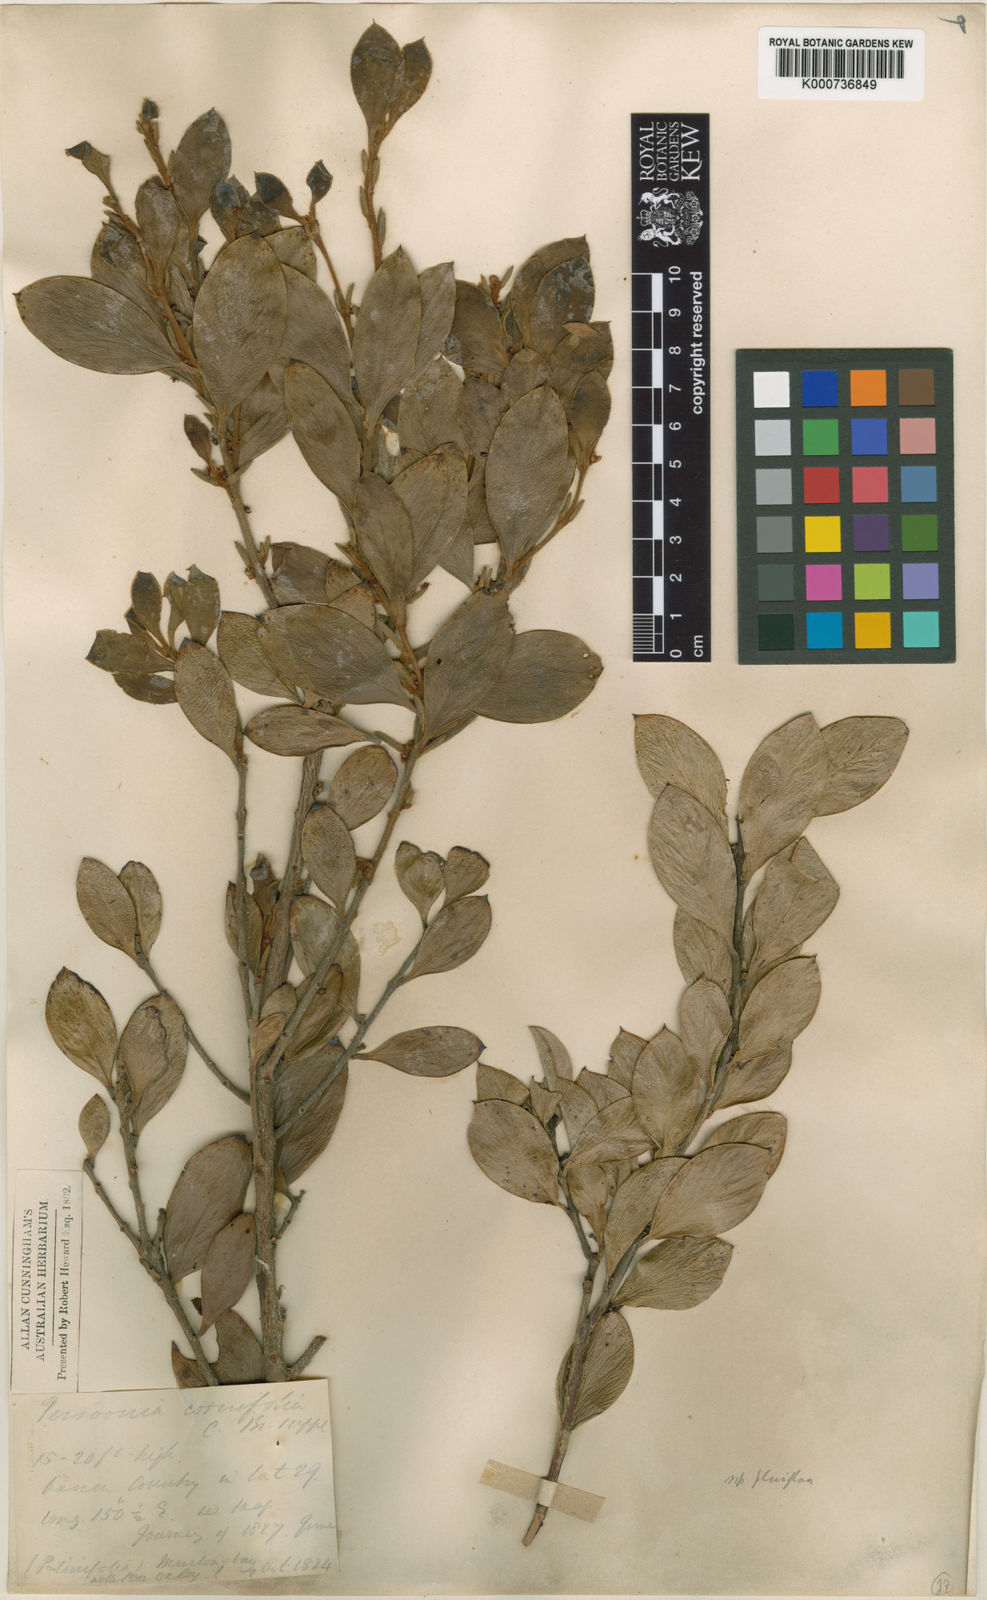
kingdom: Plantae
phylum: Tracheophyta
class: Magnoliopsida
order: Proteales
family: Proteaceae
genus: Persoonia
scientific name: Persoonia cornifolia
